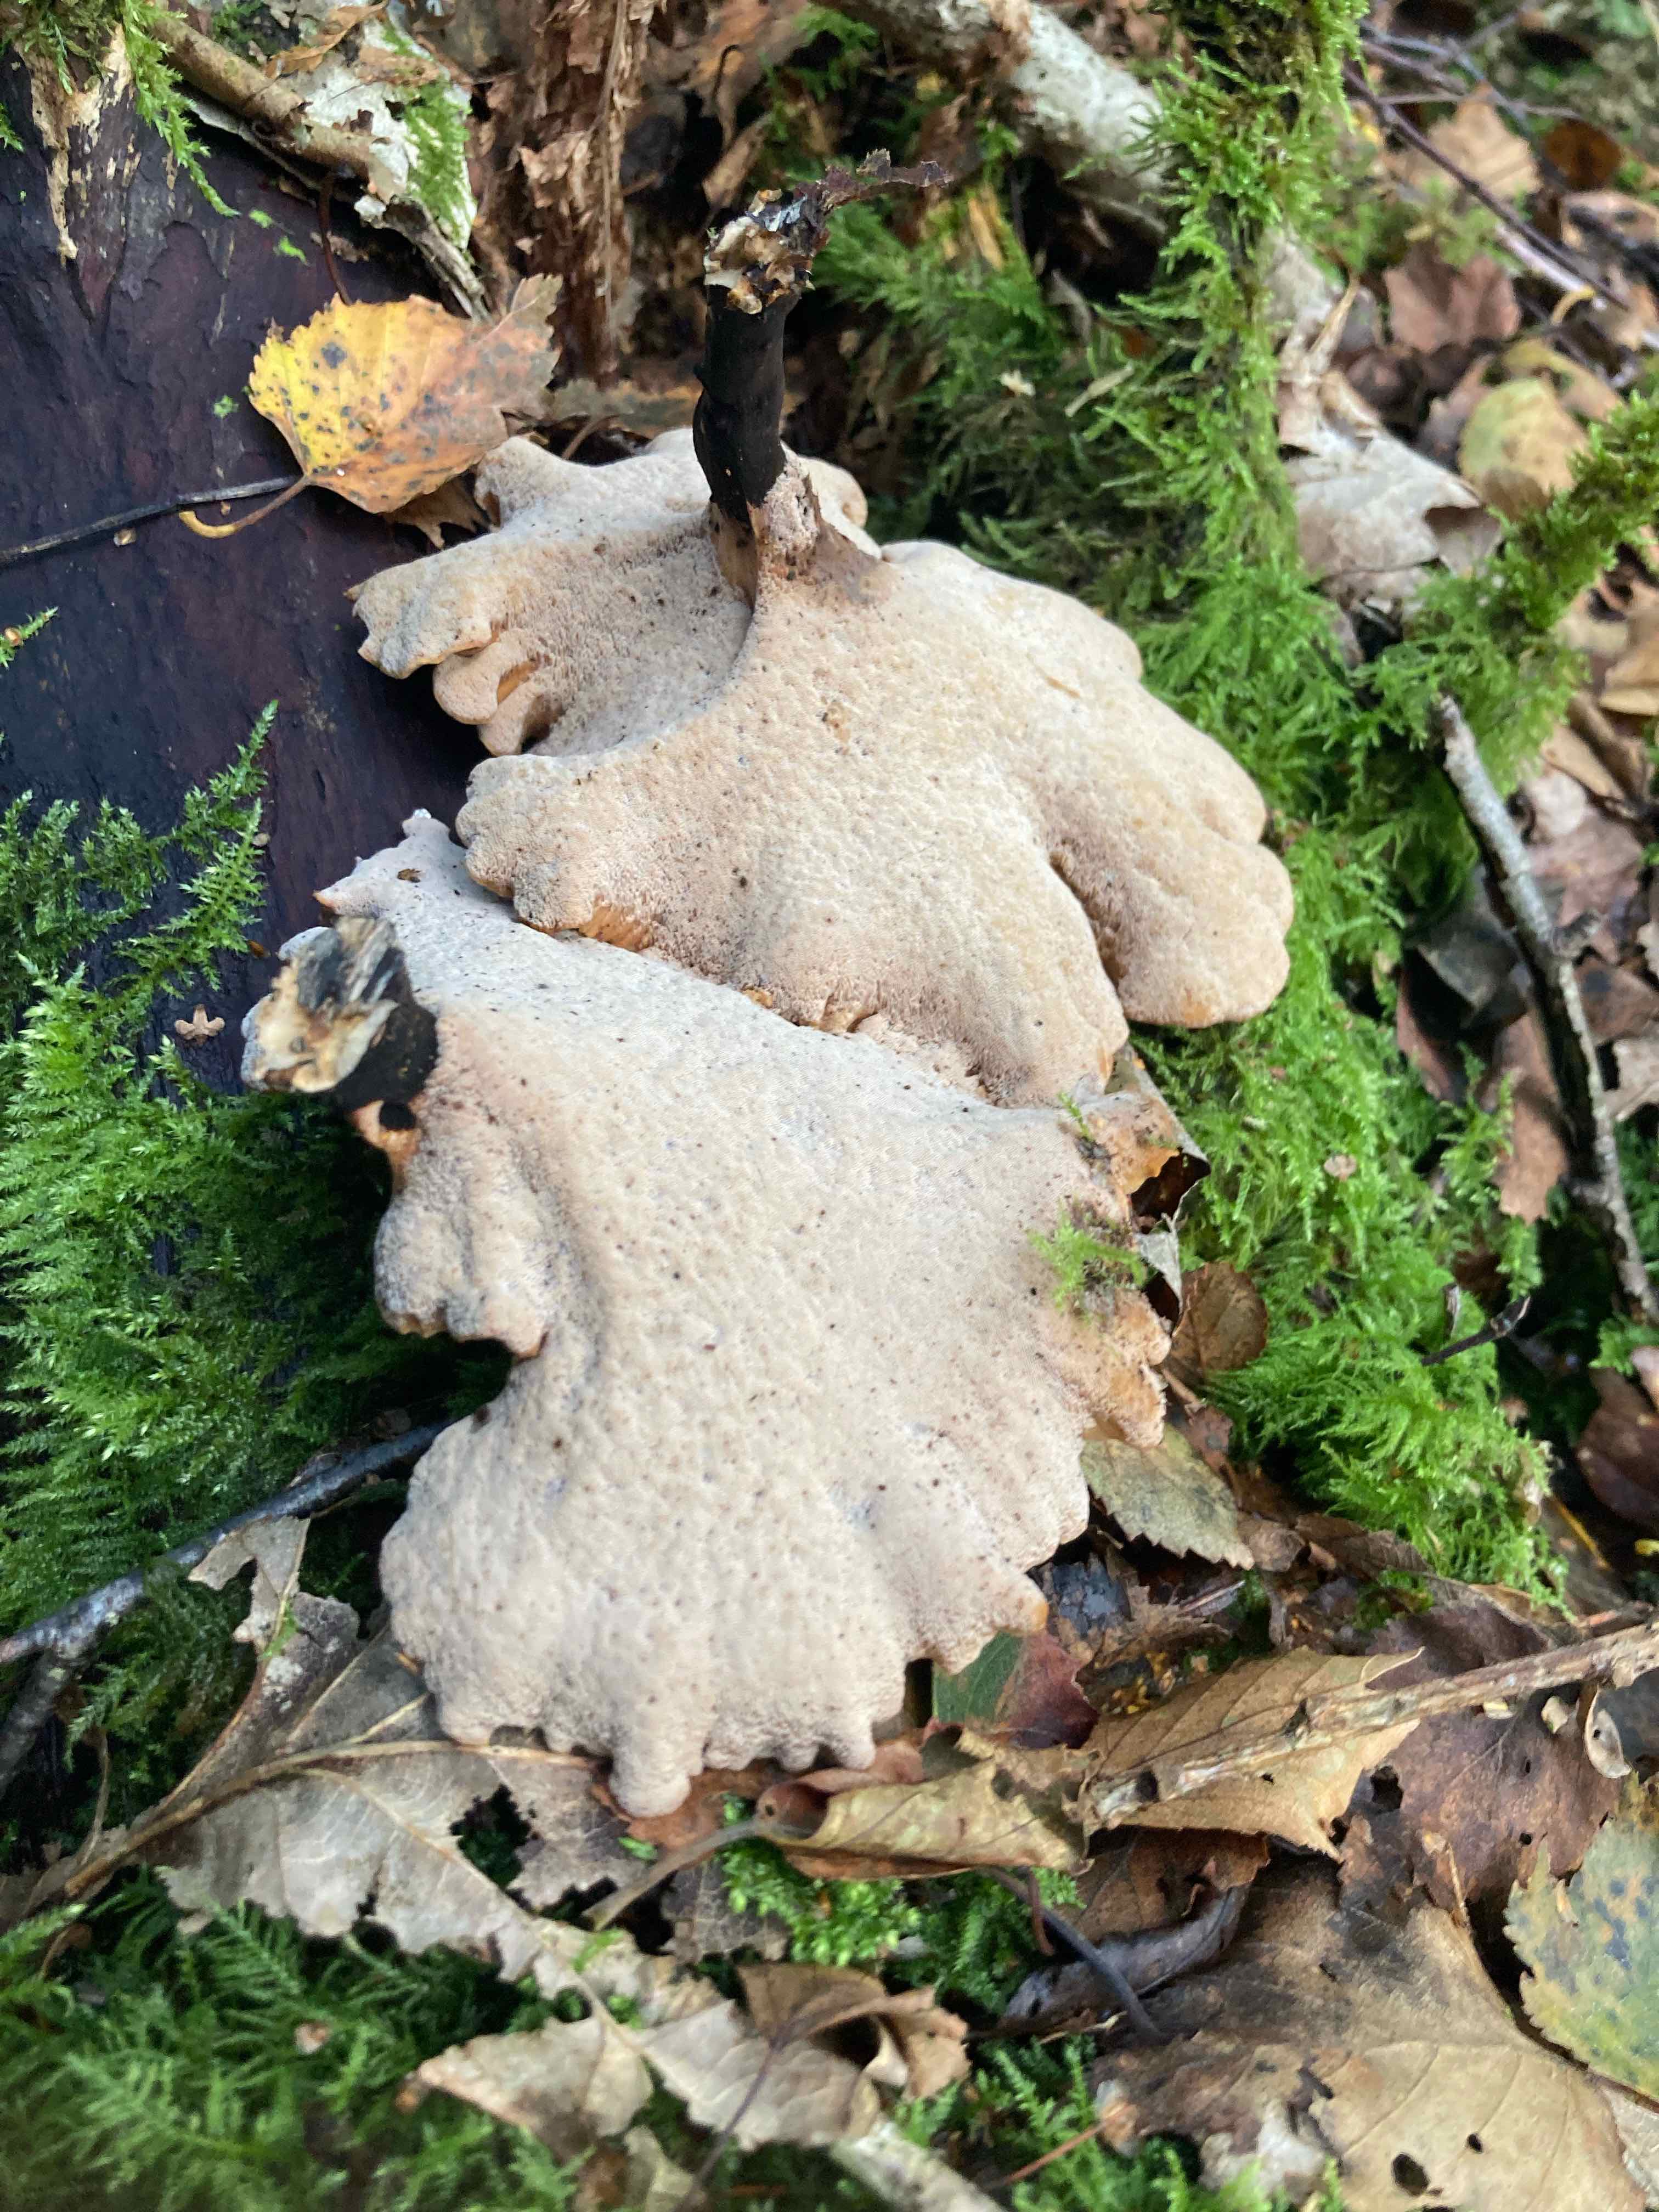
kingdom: Fungi
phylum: Basidiomycota
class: Agaricomycetes
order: Polyporales
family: Polyporaceae
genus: Cerioporus
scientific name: Cerioporus varius
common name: foranderlig stilkporesvamp
